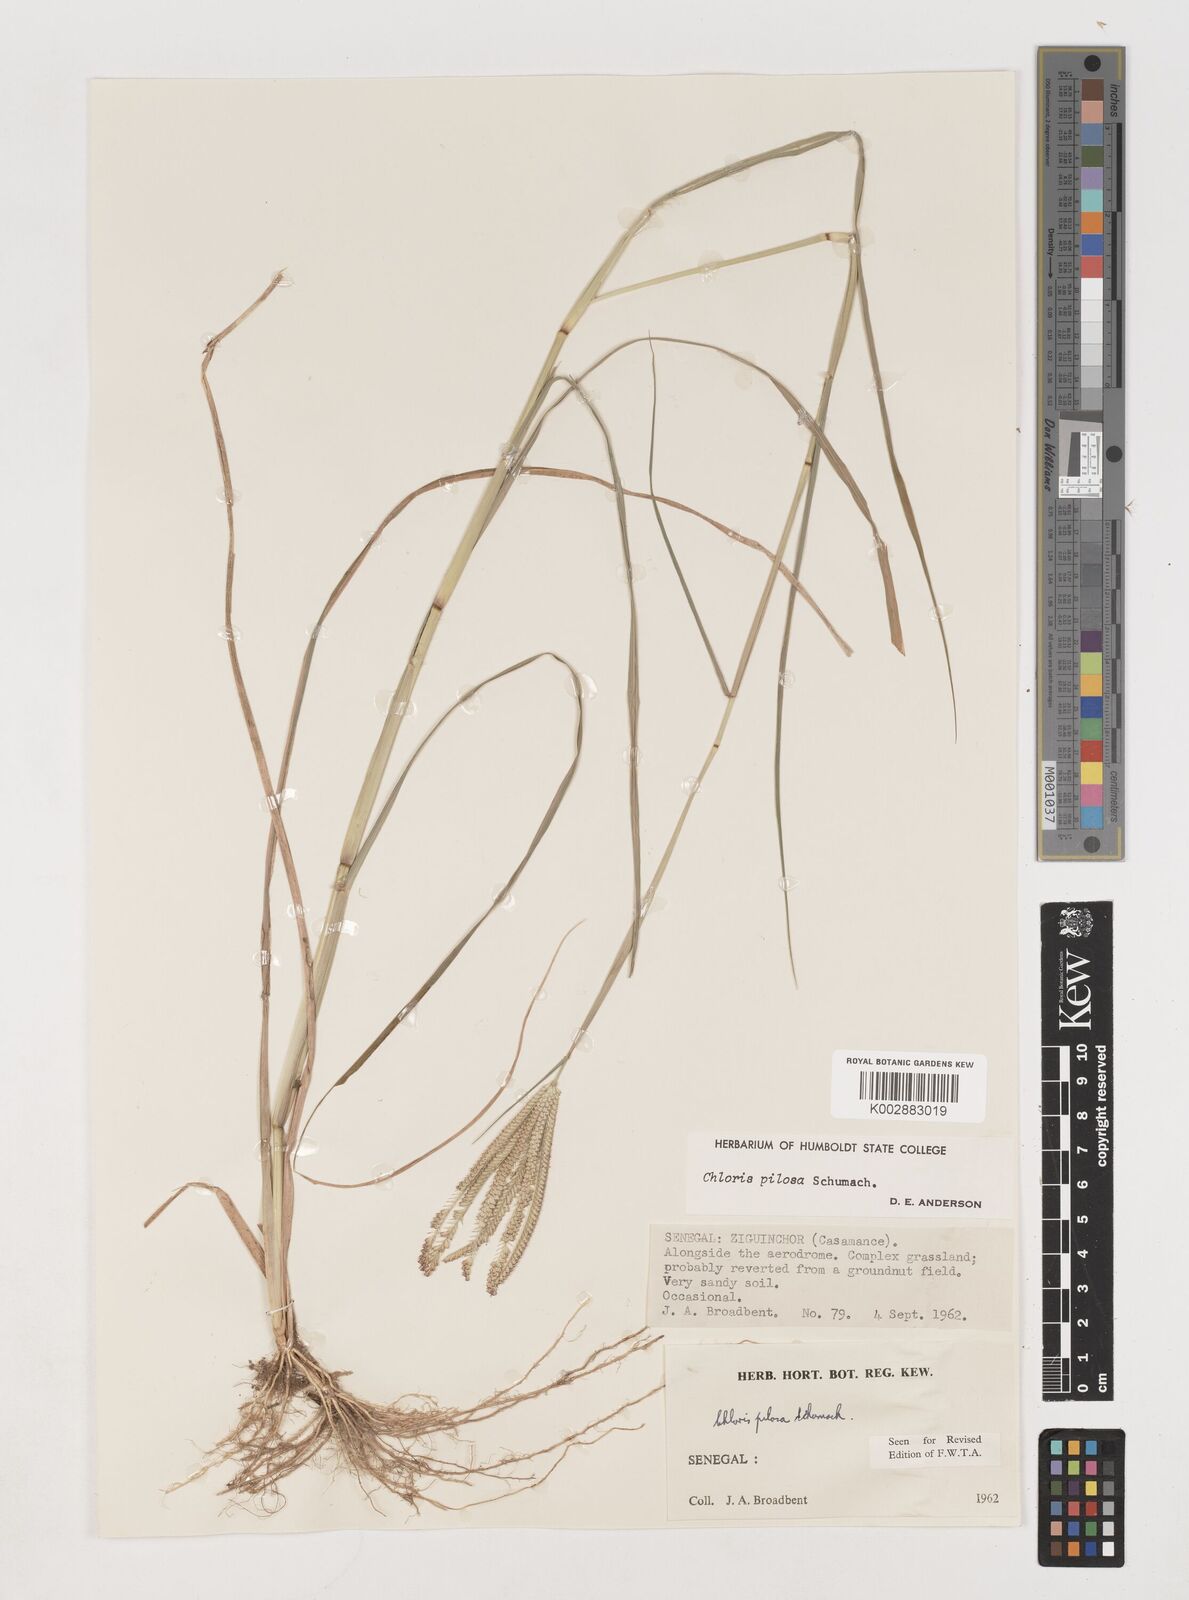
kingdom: Plantae
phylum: Tracheophyta
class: Liliopsida
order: Poales
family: Poaceae
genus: Chloris
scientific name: Chloris pilosa
